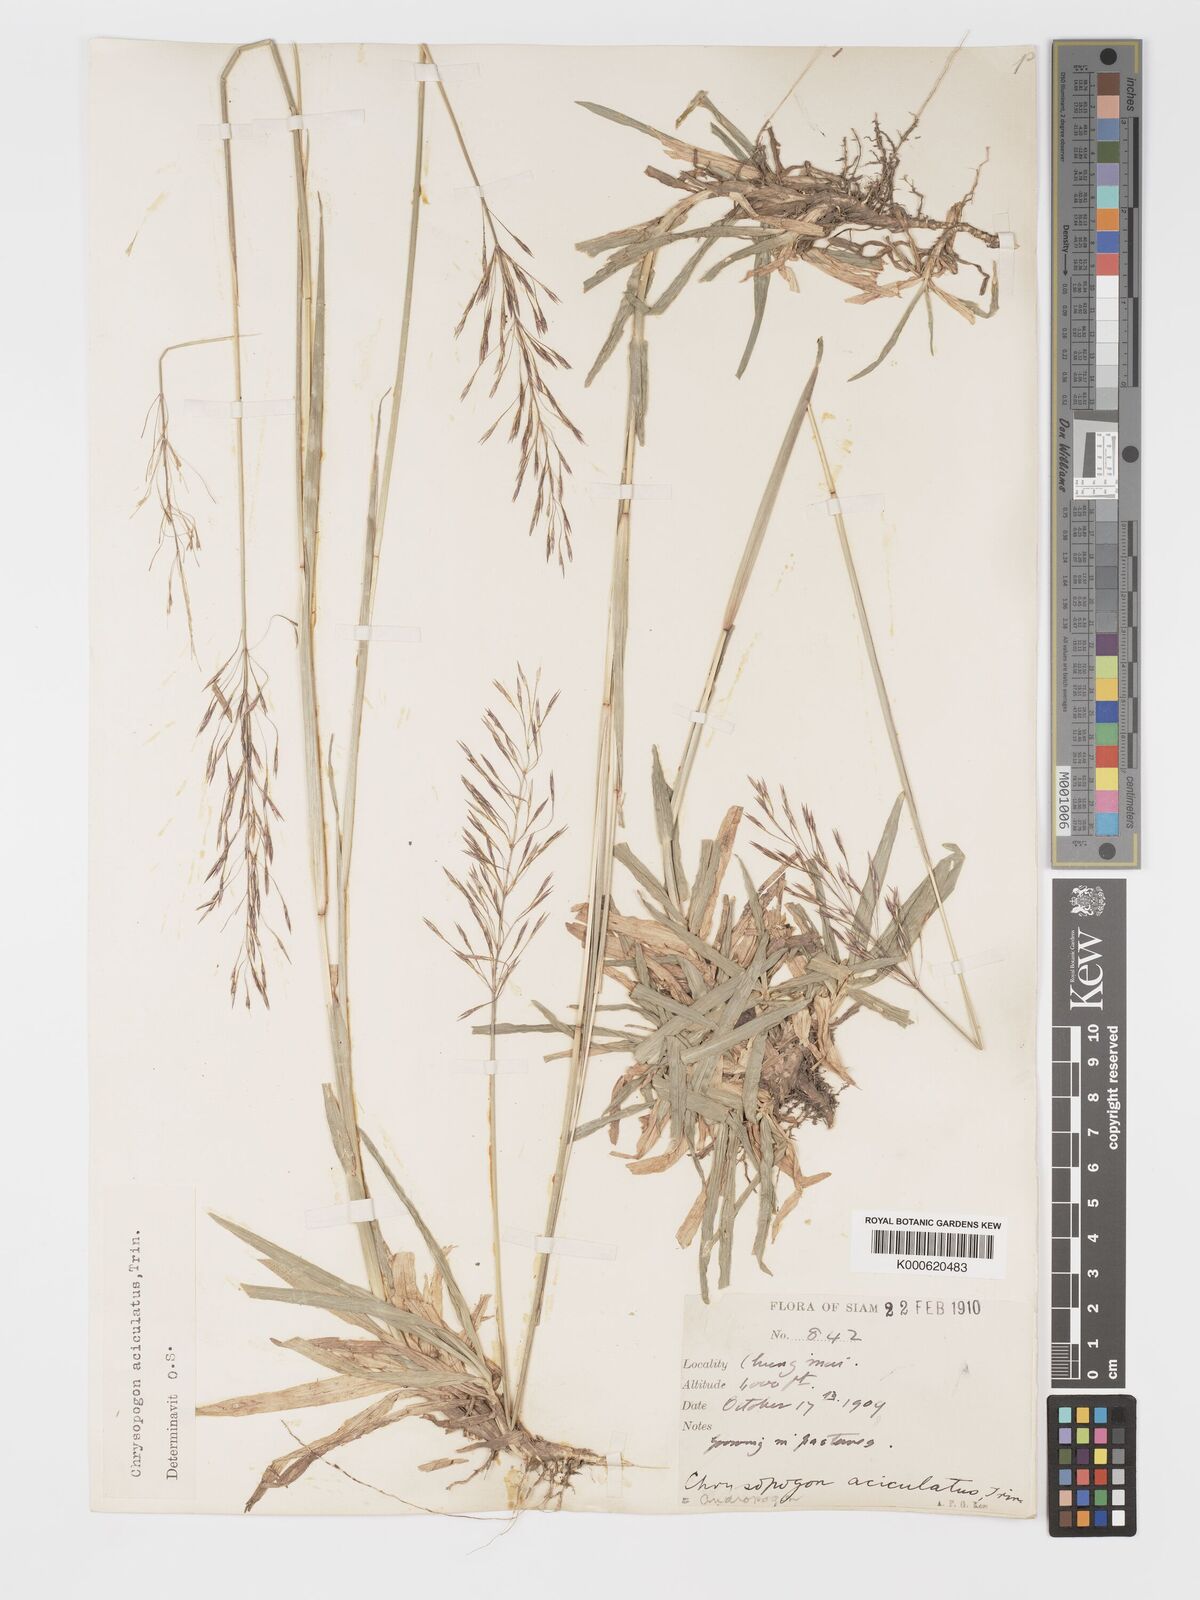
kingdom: Plantae
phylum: Tracheophyta
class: Liliopsida
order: Poales
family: Poaceae
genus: Chrysopogon
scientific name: Chrysopogon aciculatus
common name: Pilipiliula
